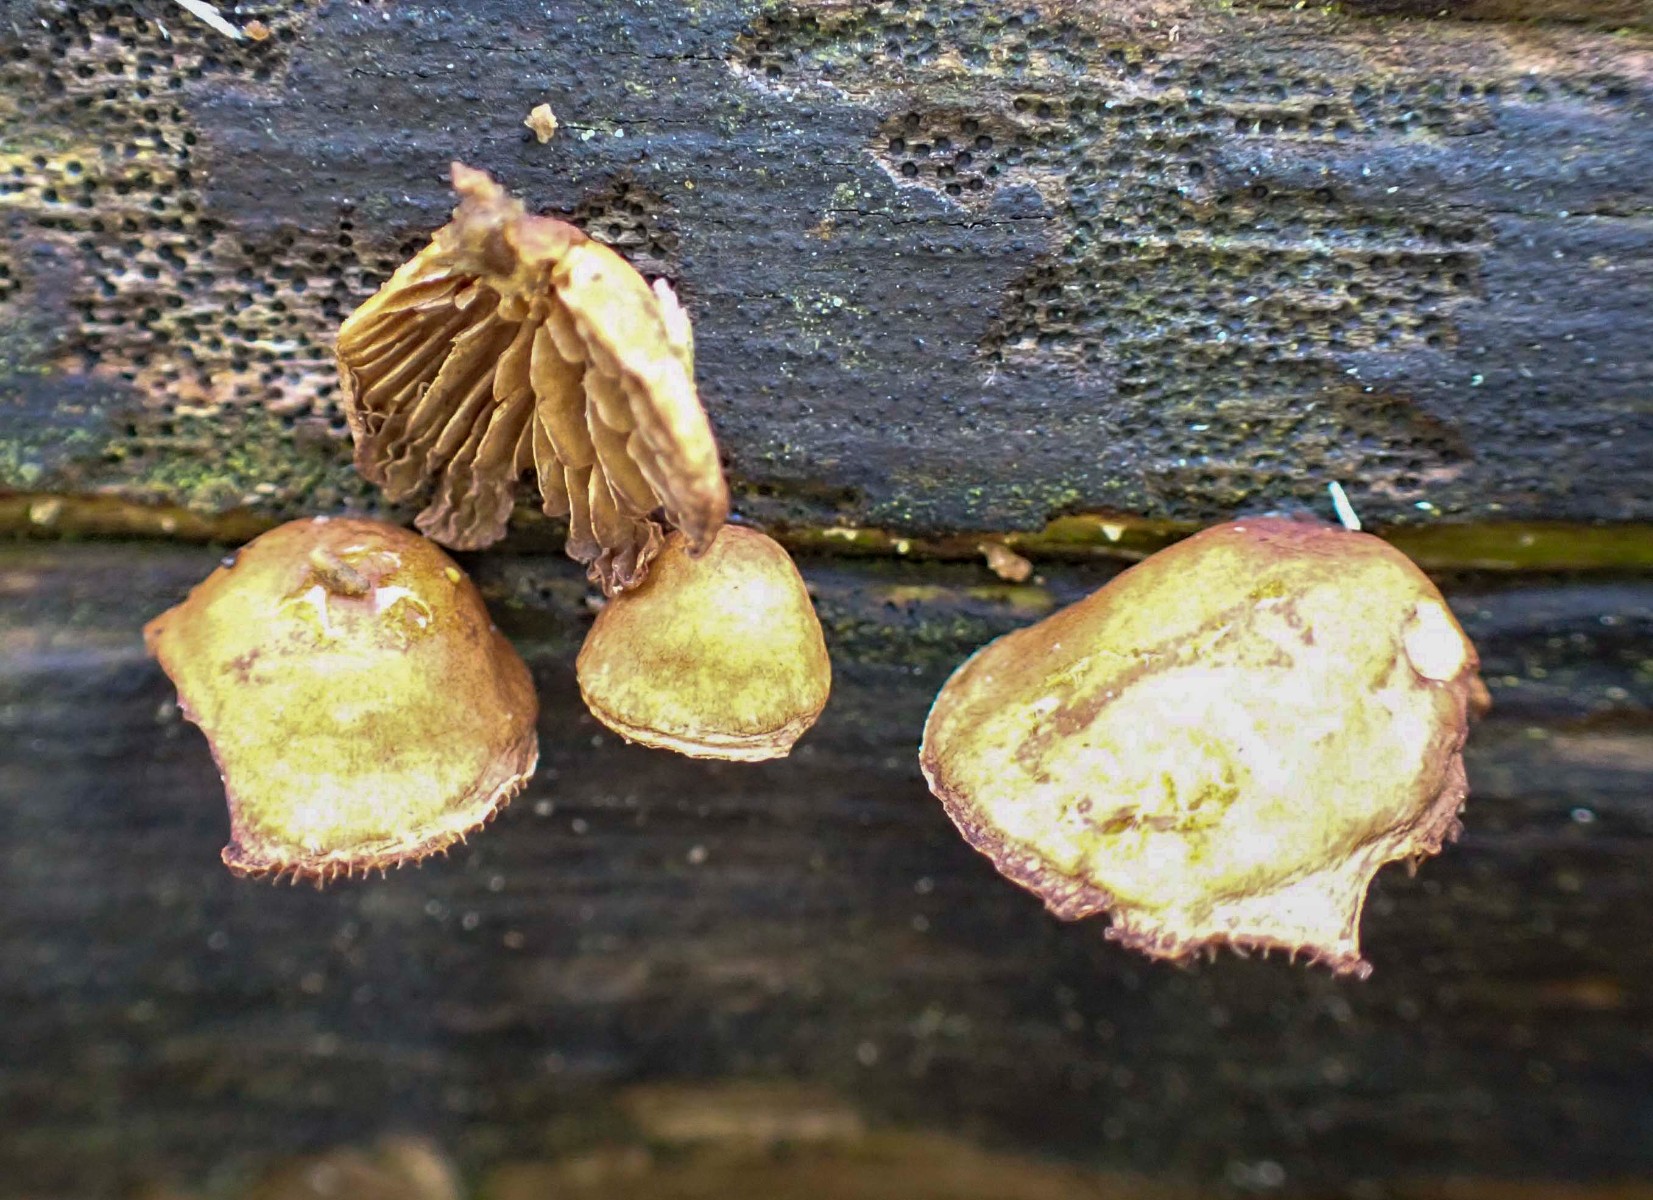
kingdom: Fungi
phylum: Basidiomycota
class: Agaricomycetes
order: Agaricales
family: Strophariaceae
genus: Deconica
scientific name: Deconica horizontalis
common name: ved-stråhat
